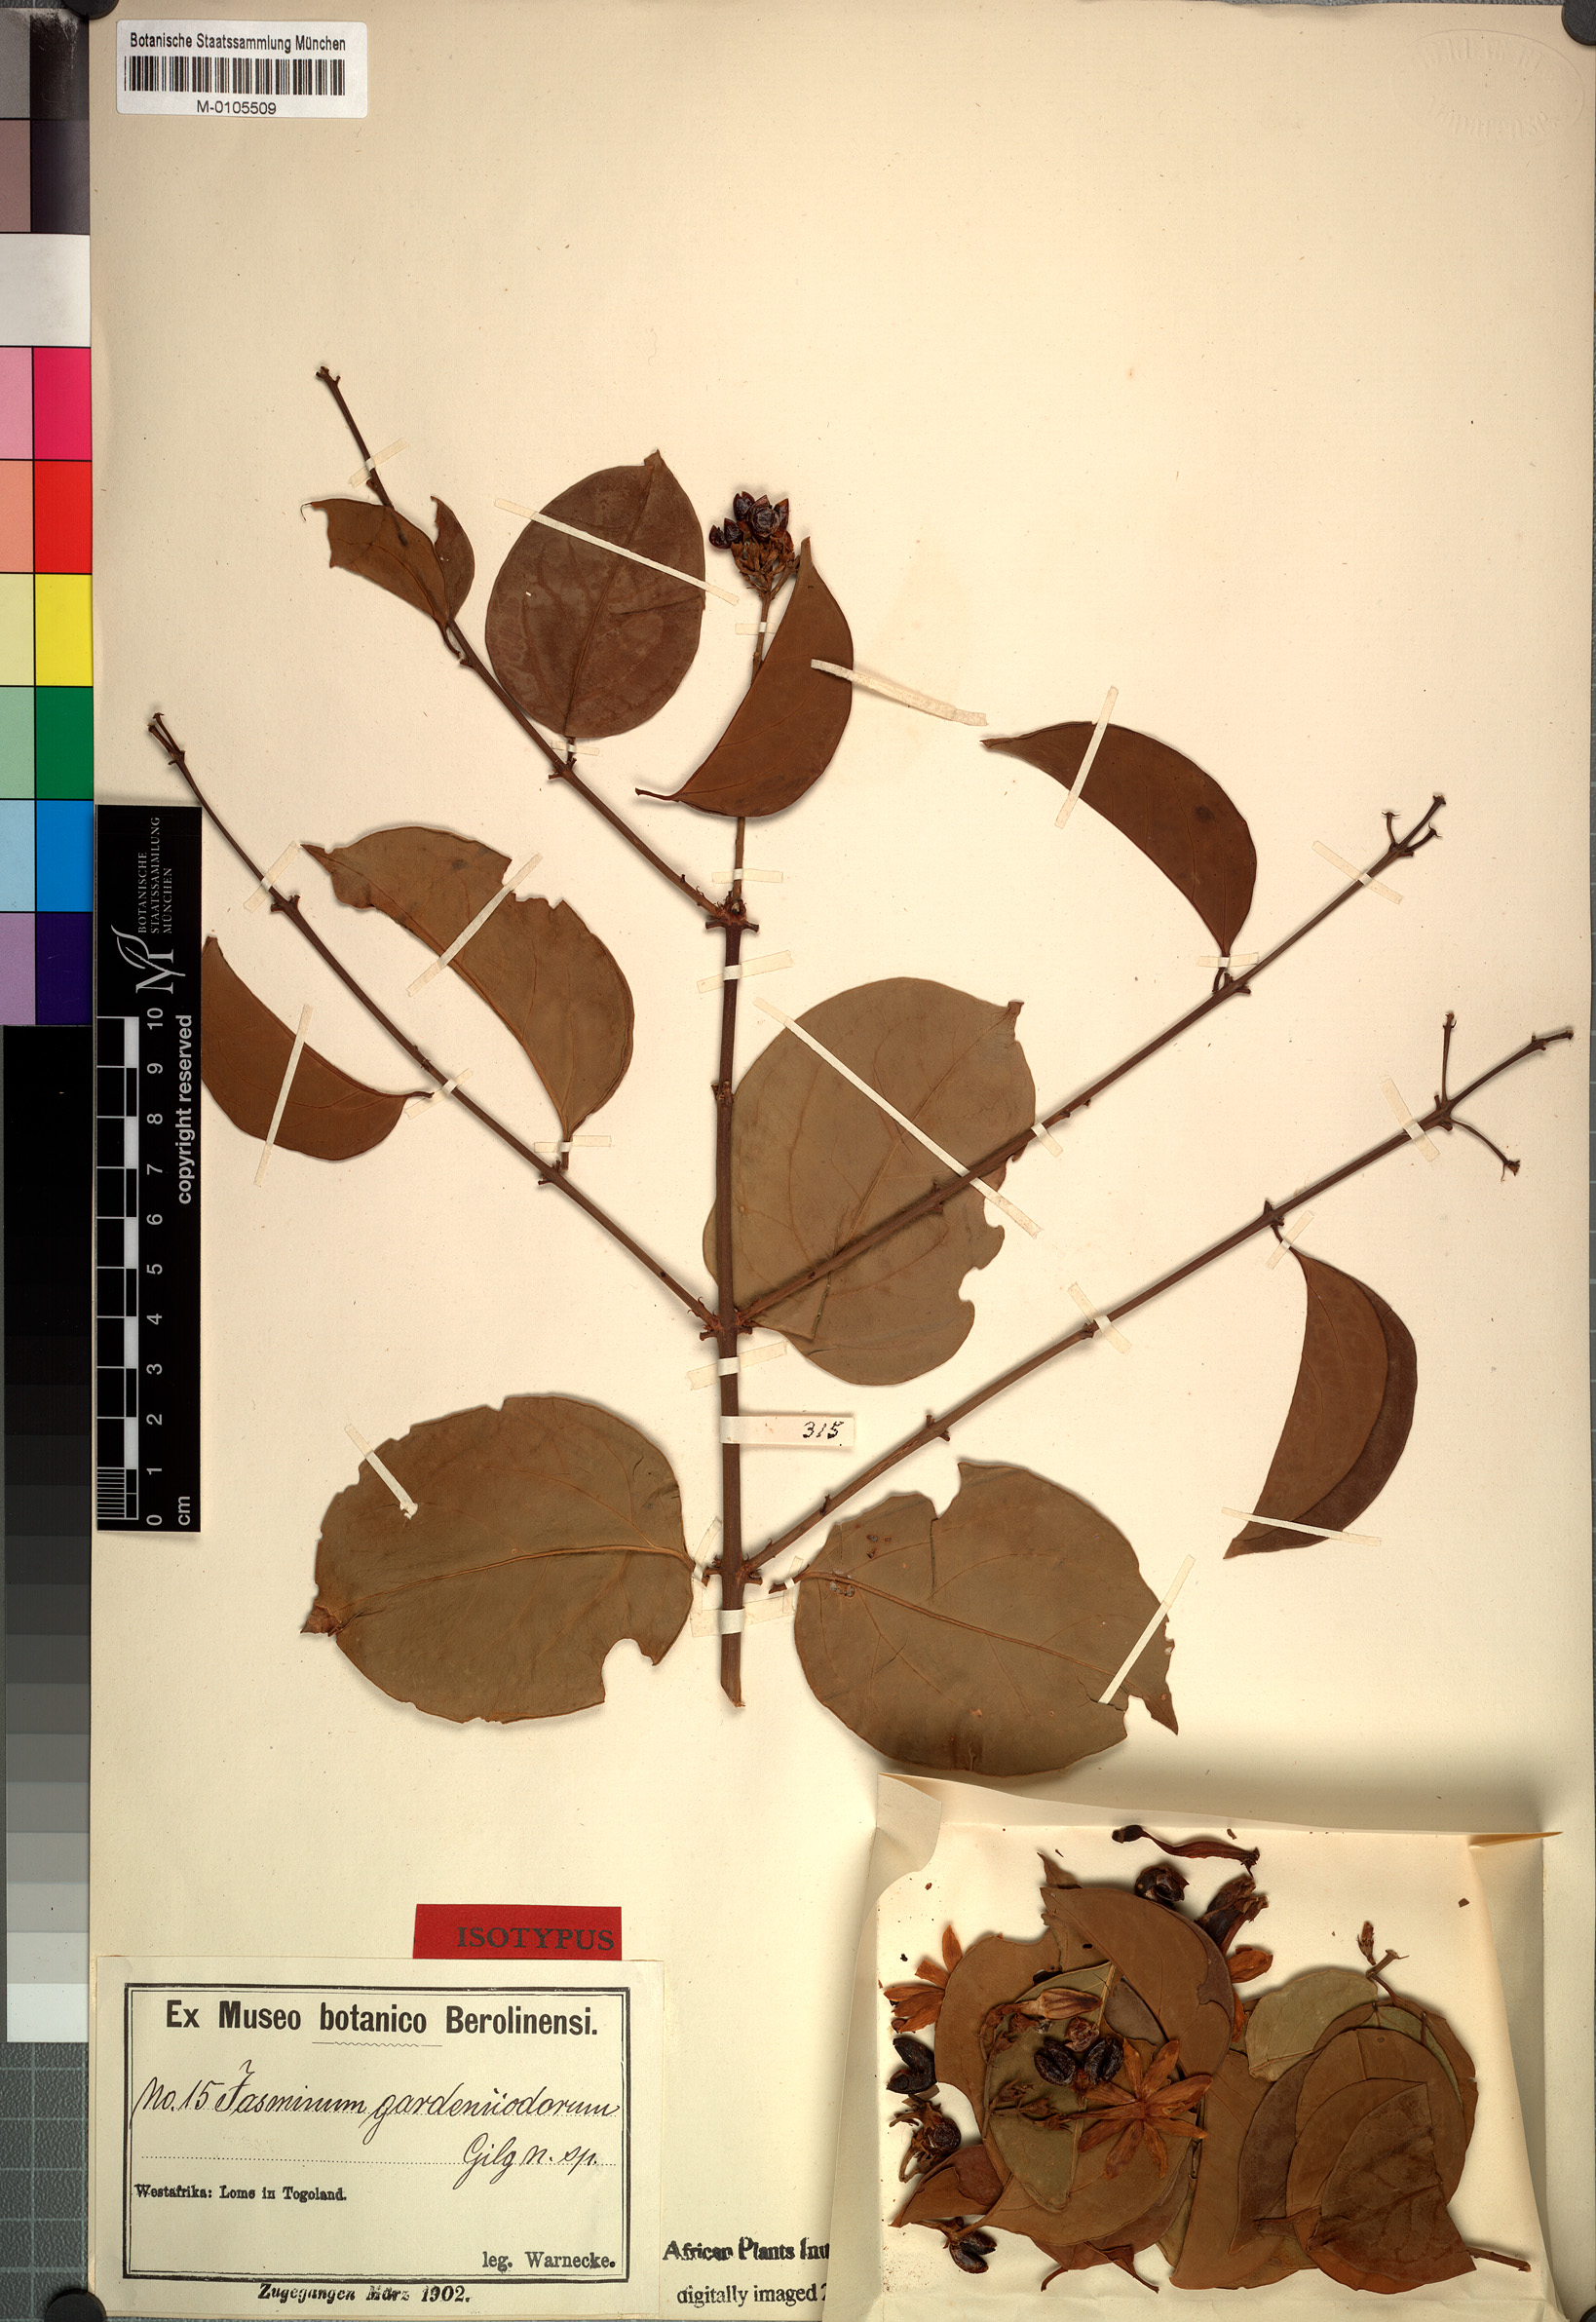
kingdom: Plantae
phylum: Tracheophyta
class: Magnoliopsida
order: Lamiales
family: Oleaceae
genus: Jasminum
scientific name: Jasminum dichotomum
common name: Gold coast jasmine
